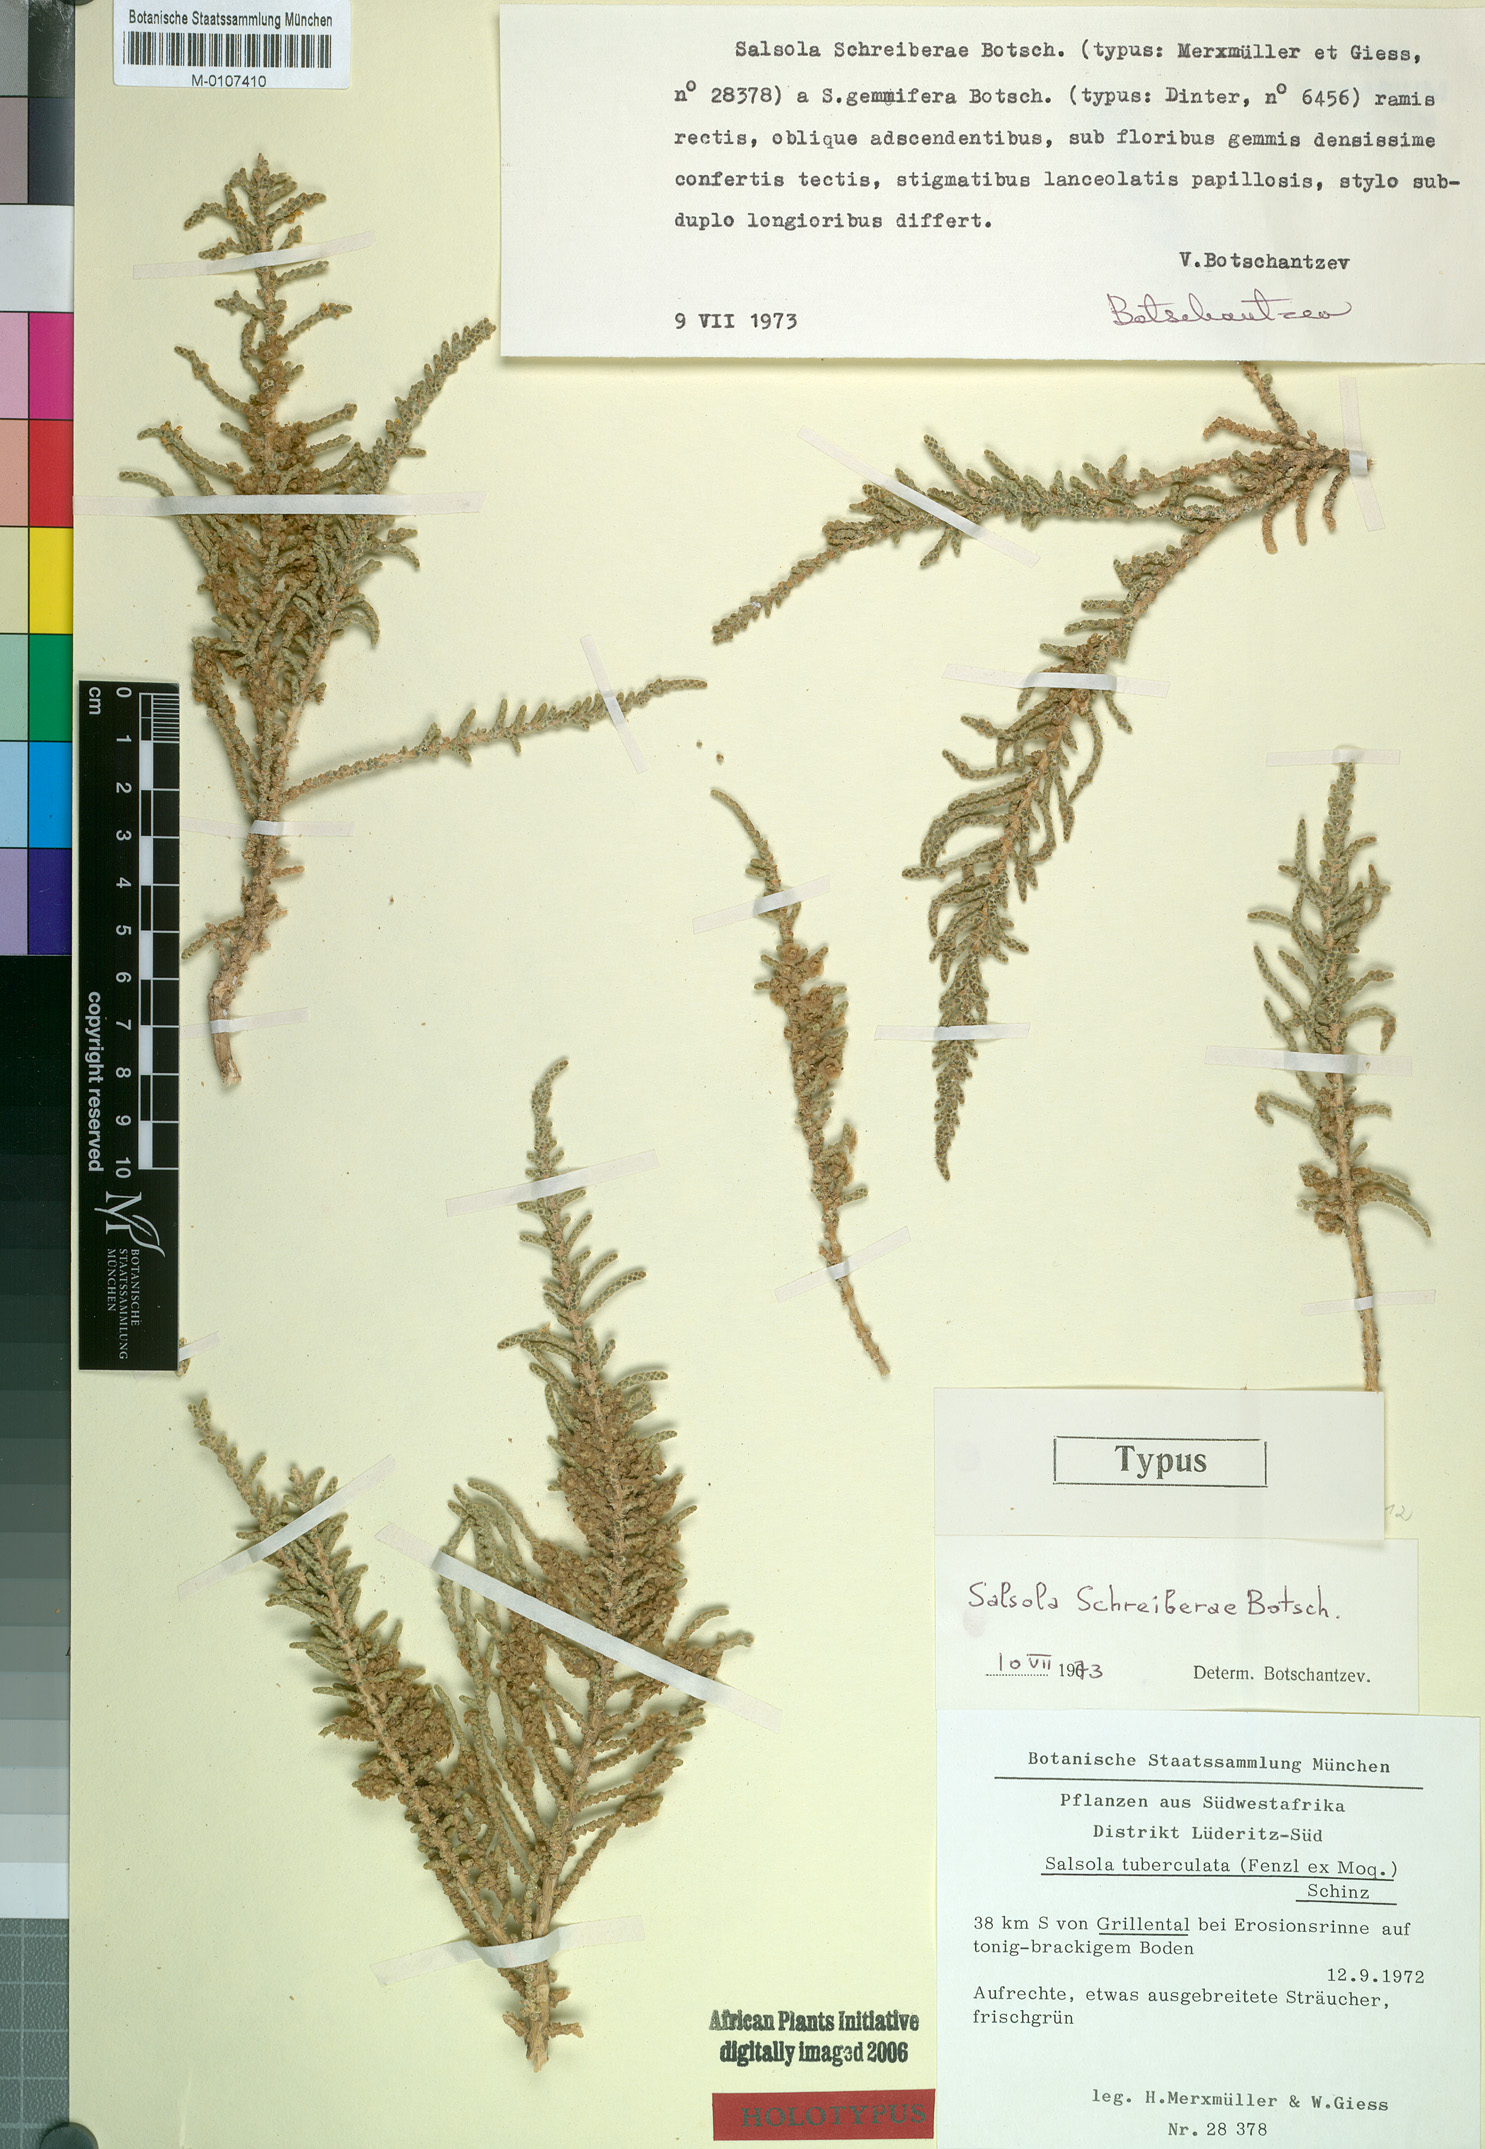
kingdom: Plantae
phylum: Tracheophyta
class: Magnoliopsida
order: Caryophyllales
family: Amaranthaceae
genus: Caroxylon
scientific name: Caroxylon schreiberae
